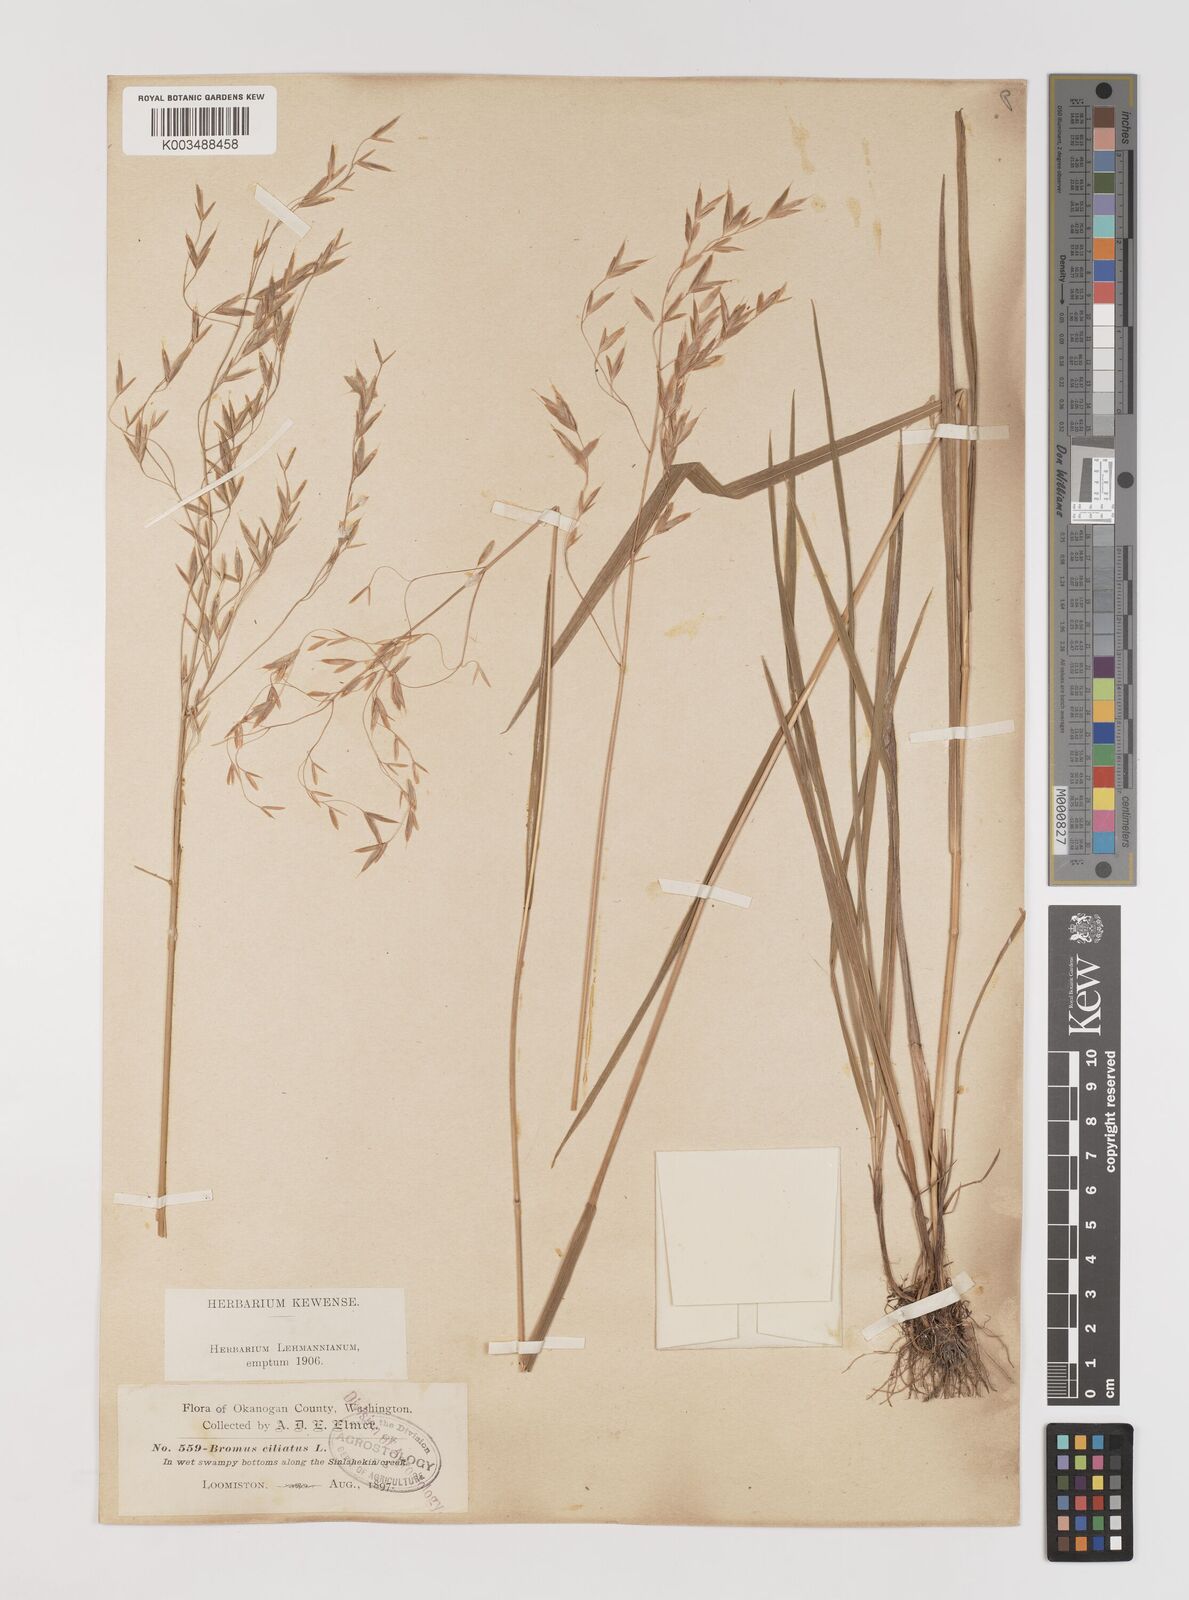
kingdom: Plantae
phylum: Tracheophyta
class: Liliopsida
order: Poales
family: Poaceae
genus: Bromus
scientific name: Bromus ciliatus
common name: Fringe brome
